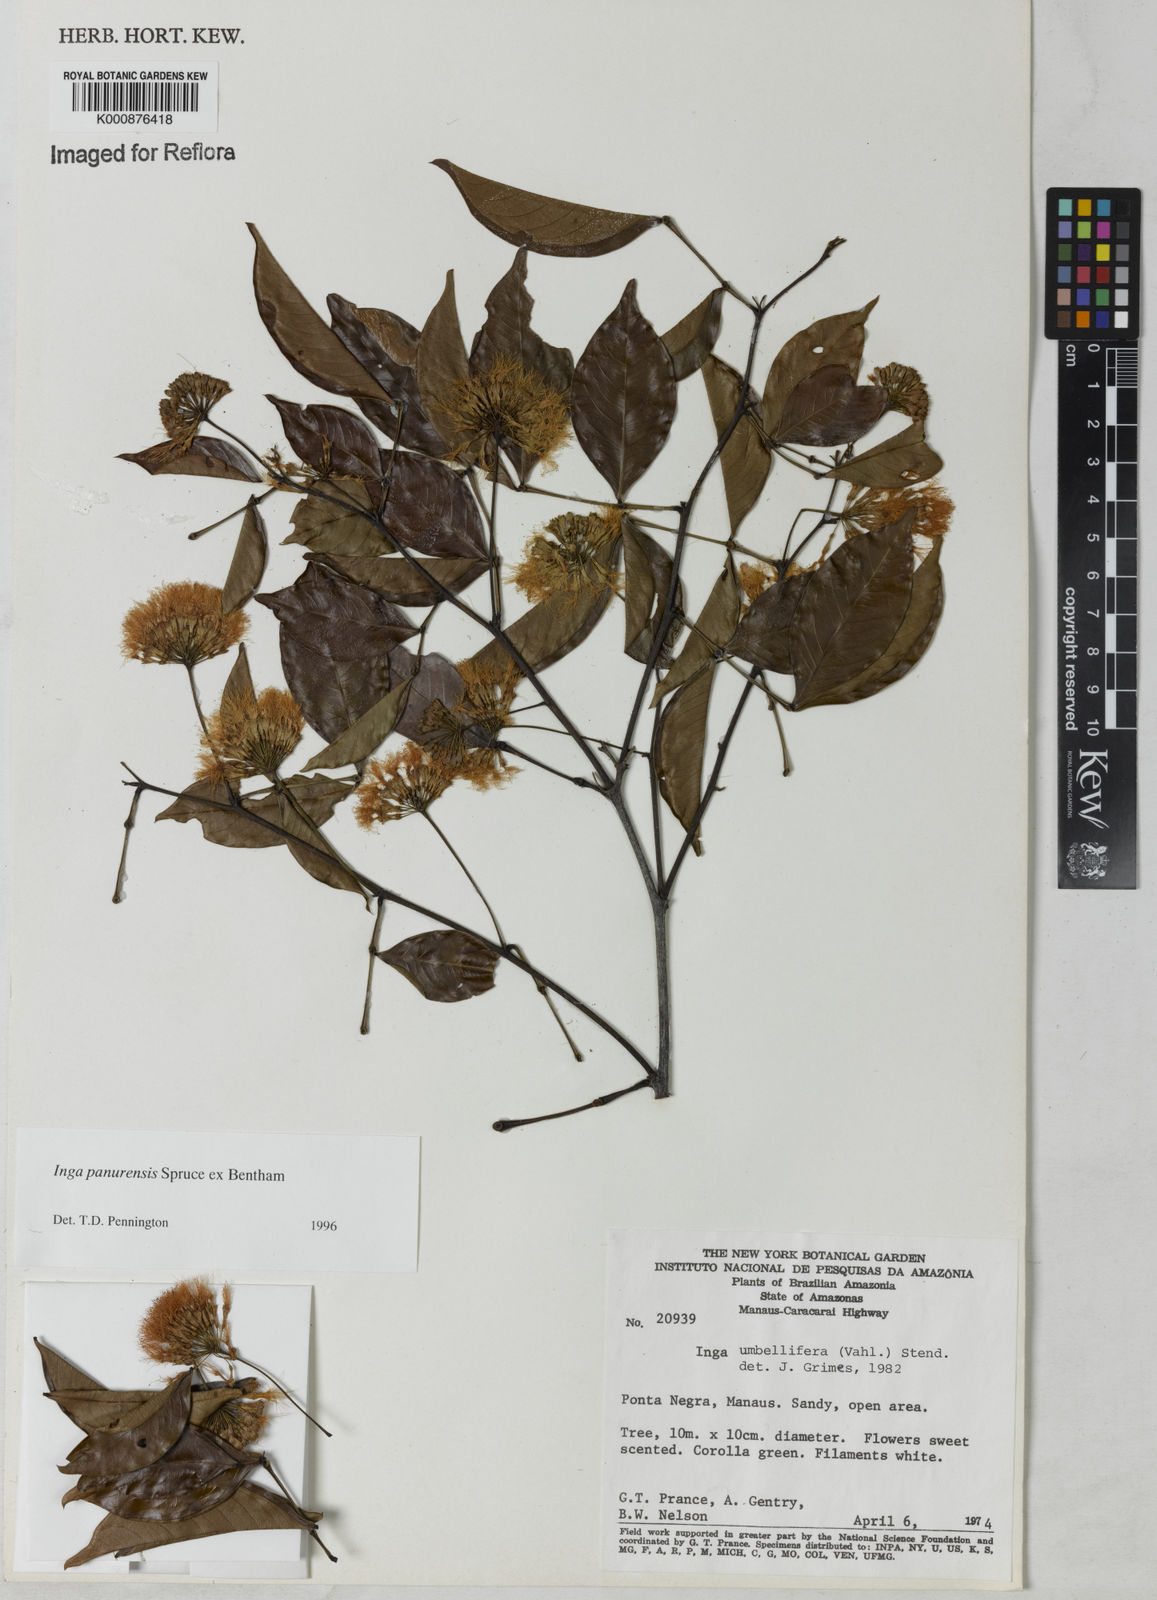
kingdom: Plantae
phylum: Tracheophyta
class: Magnoliopsida
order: Fabales
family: Fabaceae
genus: Inga
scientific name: Inga panurensis
